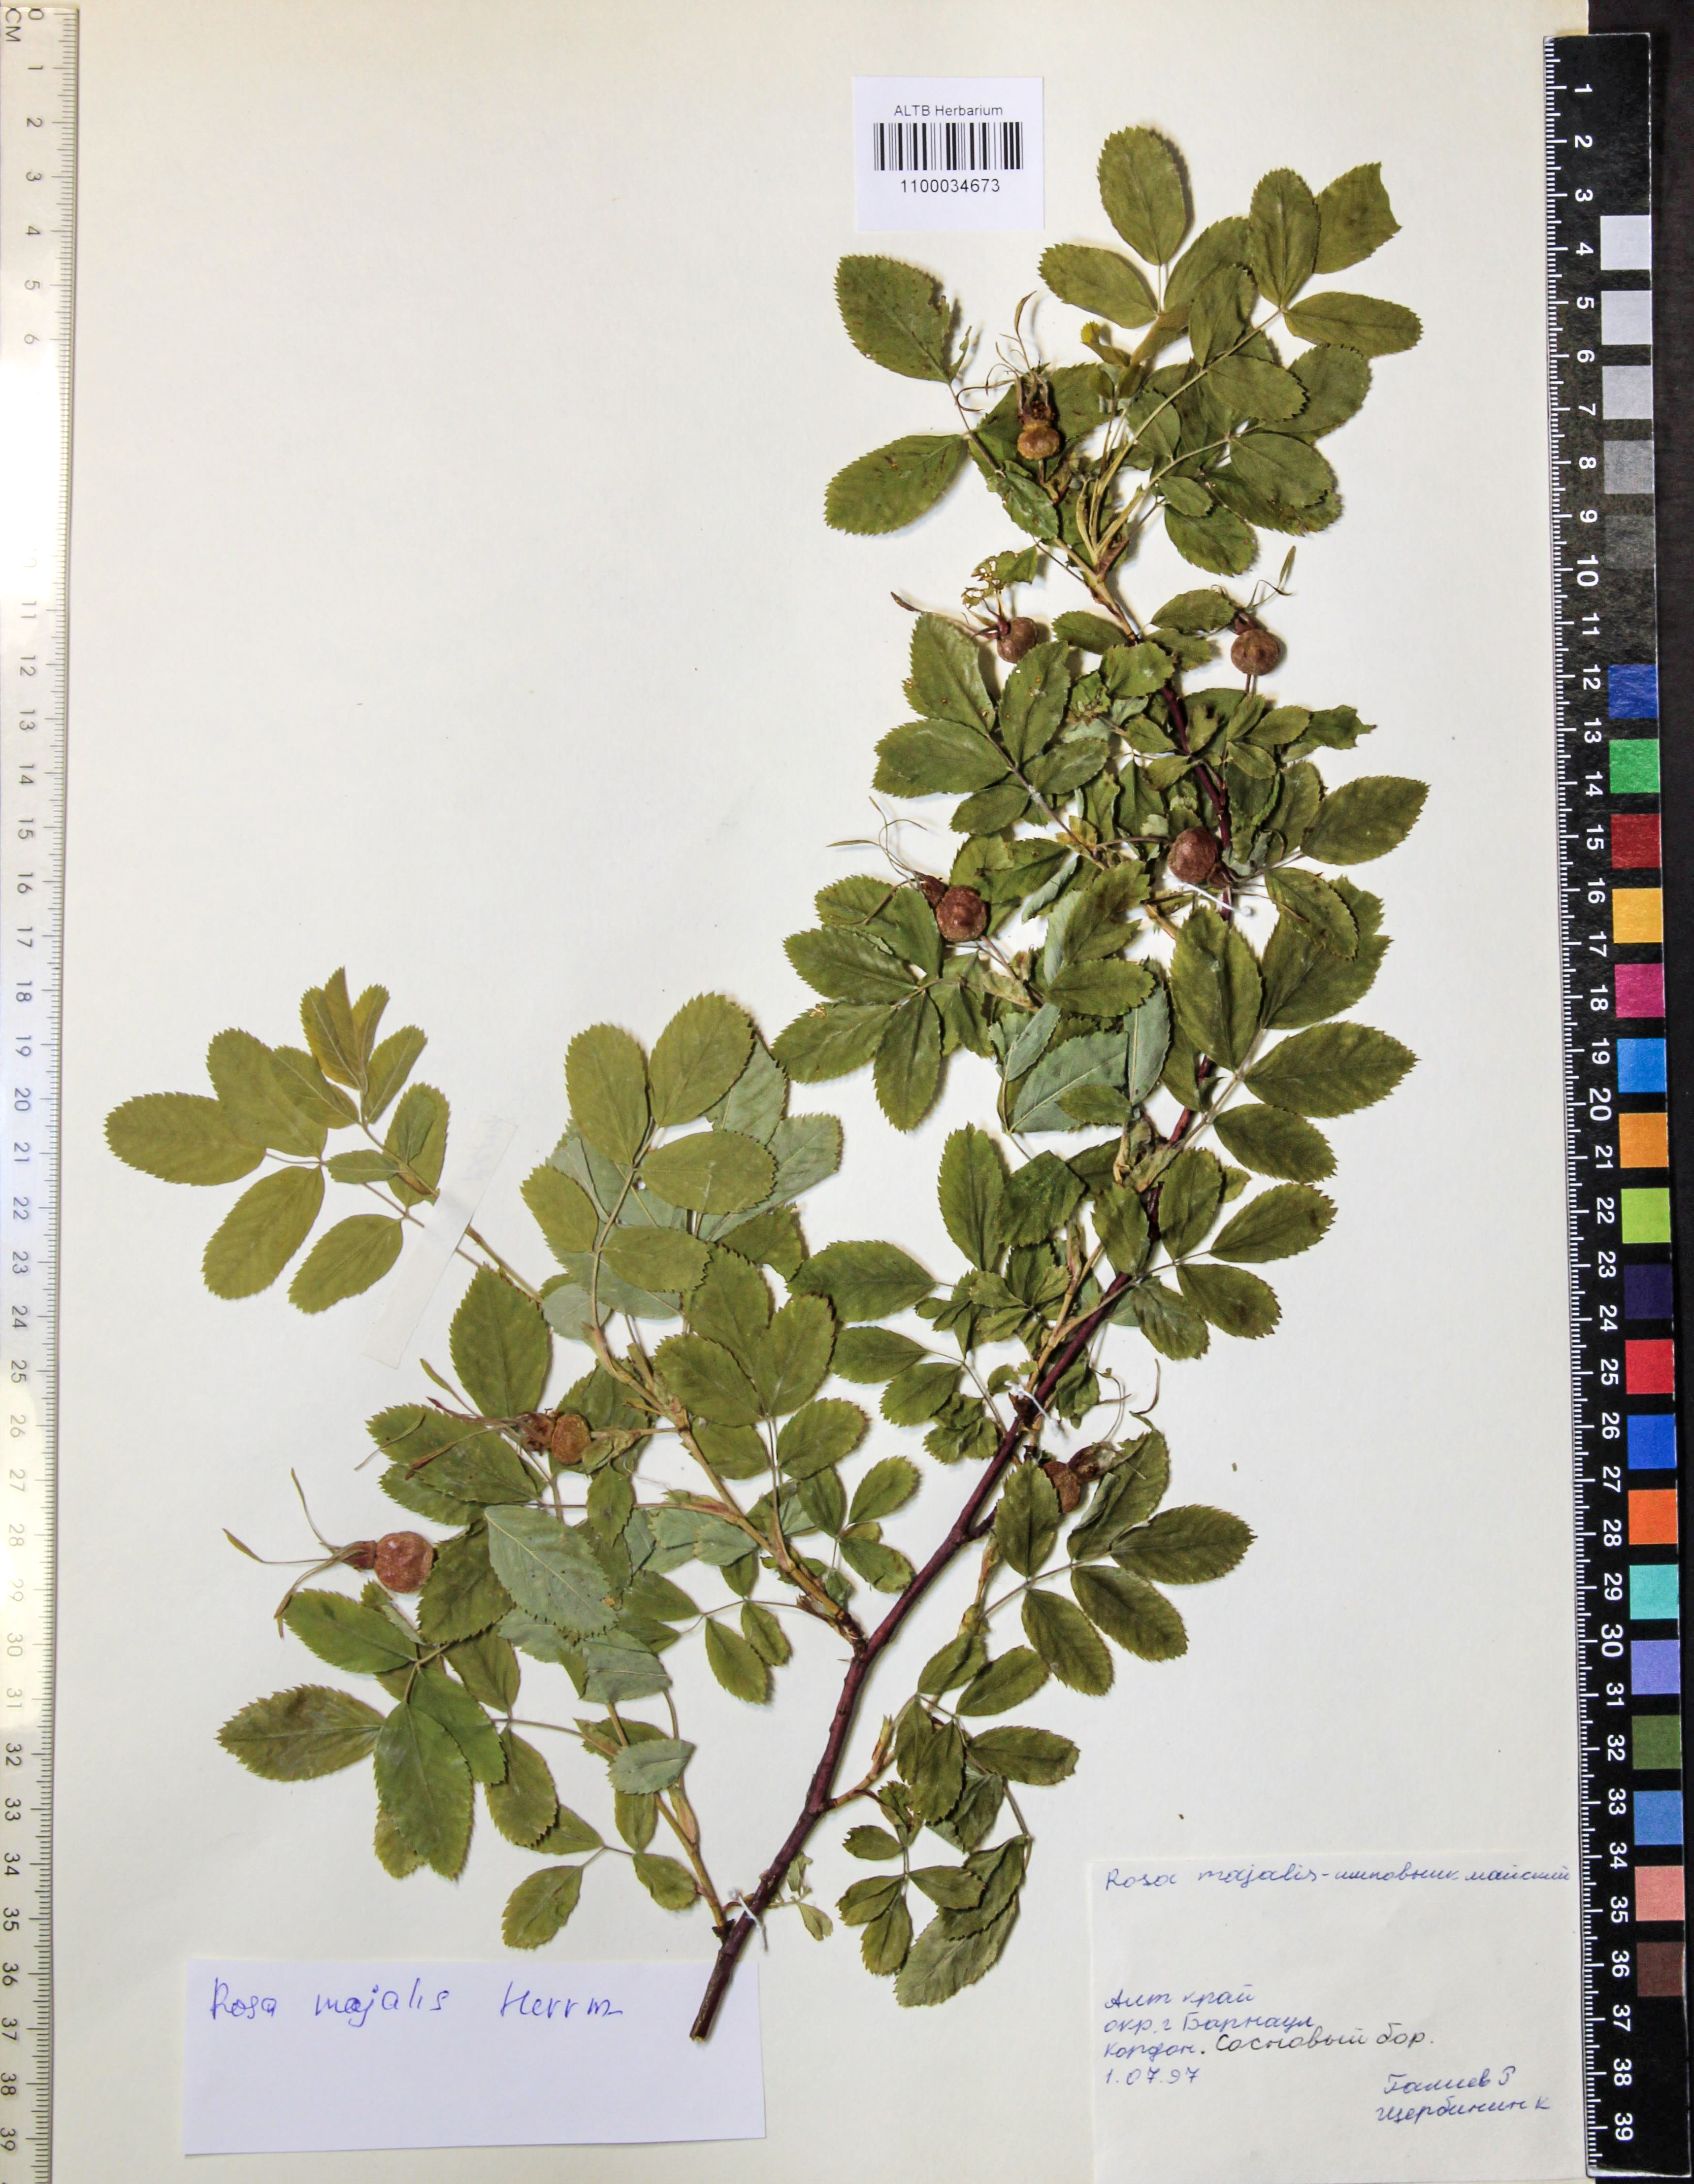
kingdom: Plantae
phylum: Tracheophyta
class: Magnoliopsida
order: Rosales
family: Rosaceae
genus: Rosa
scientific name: Rosa majalis
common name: Cinnamon rose
